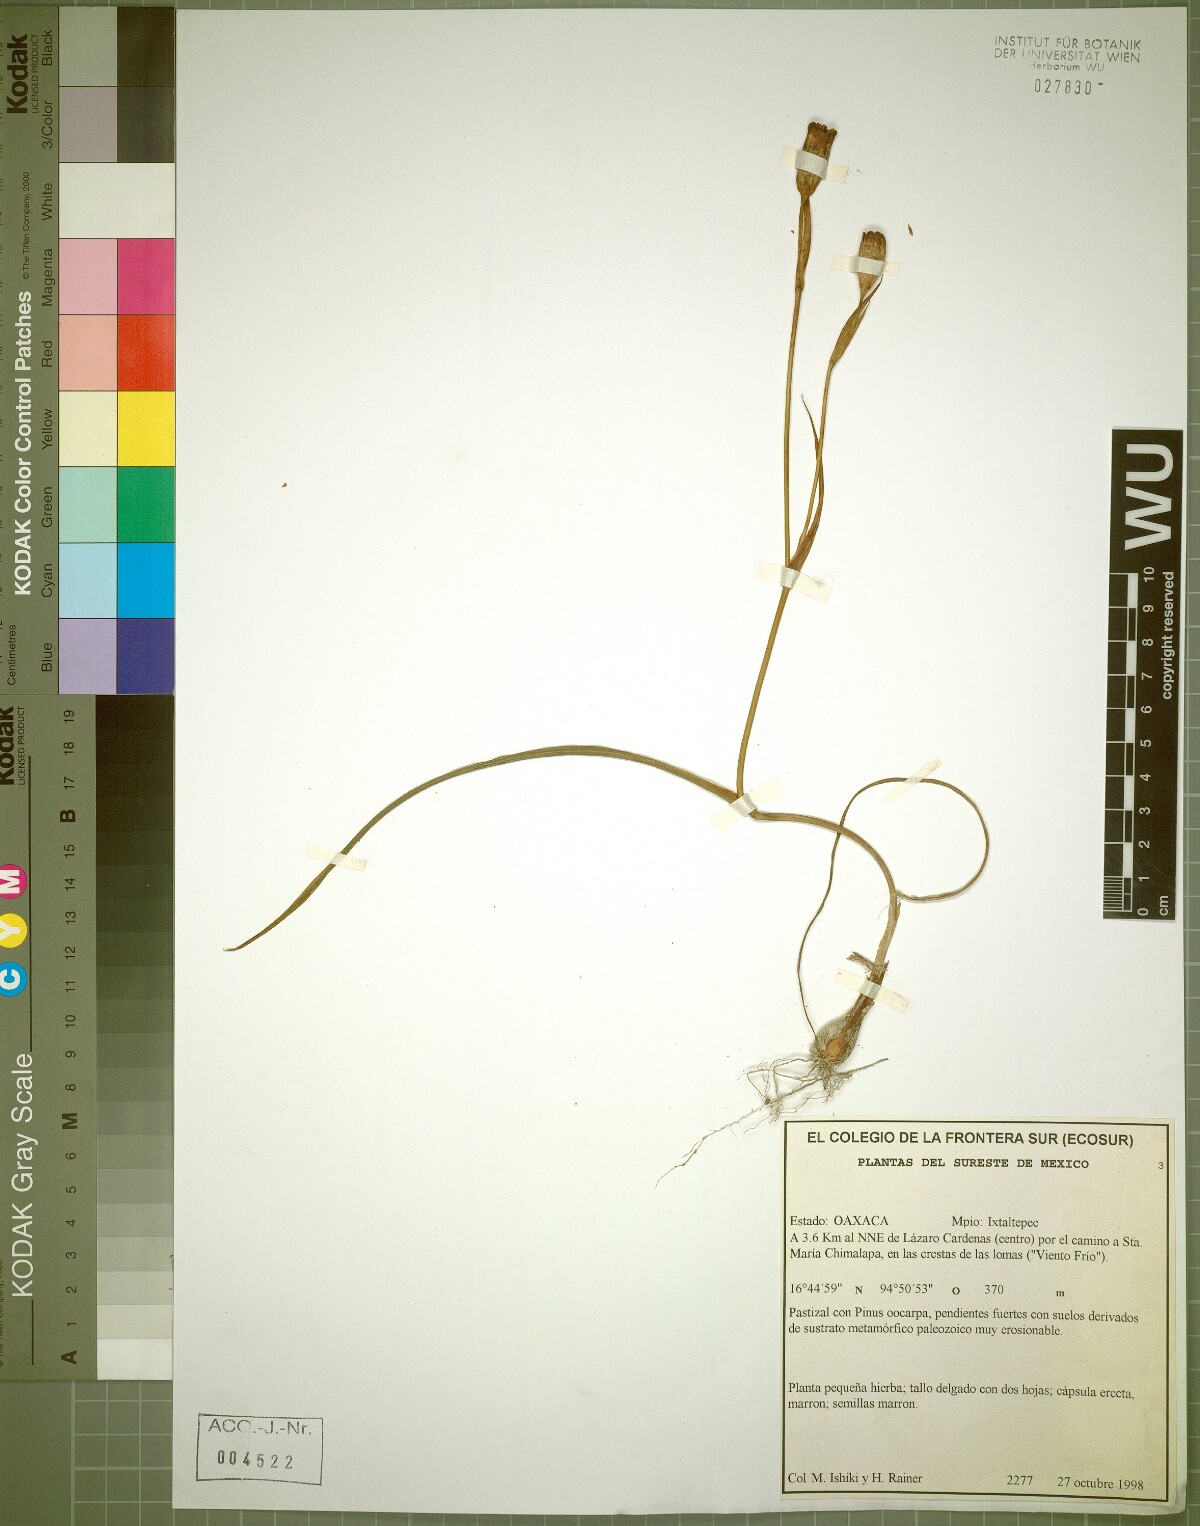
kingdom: Plantae
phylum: Tracheophyta
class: Liliopsida
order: Asparagales
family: Amaryllidaceae
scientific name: Amaryllidaceae
